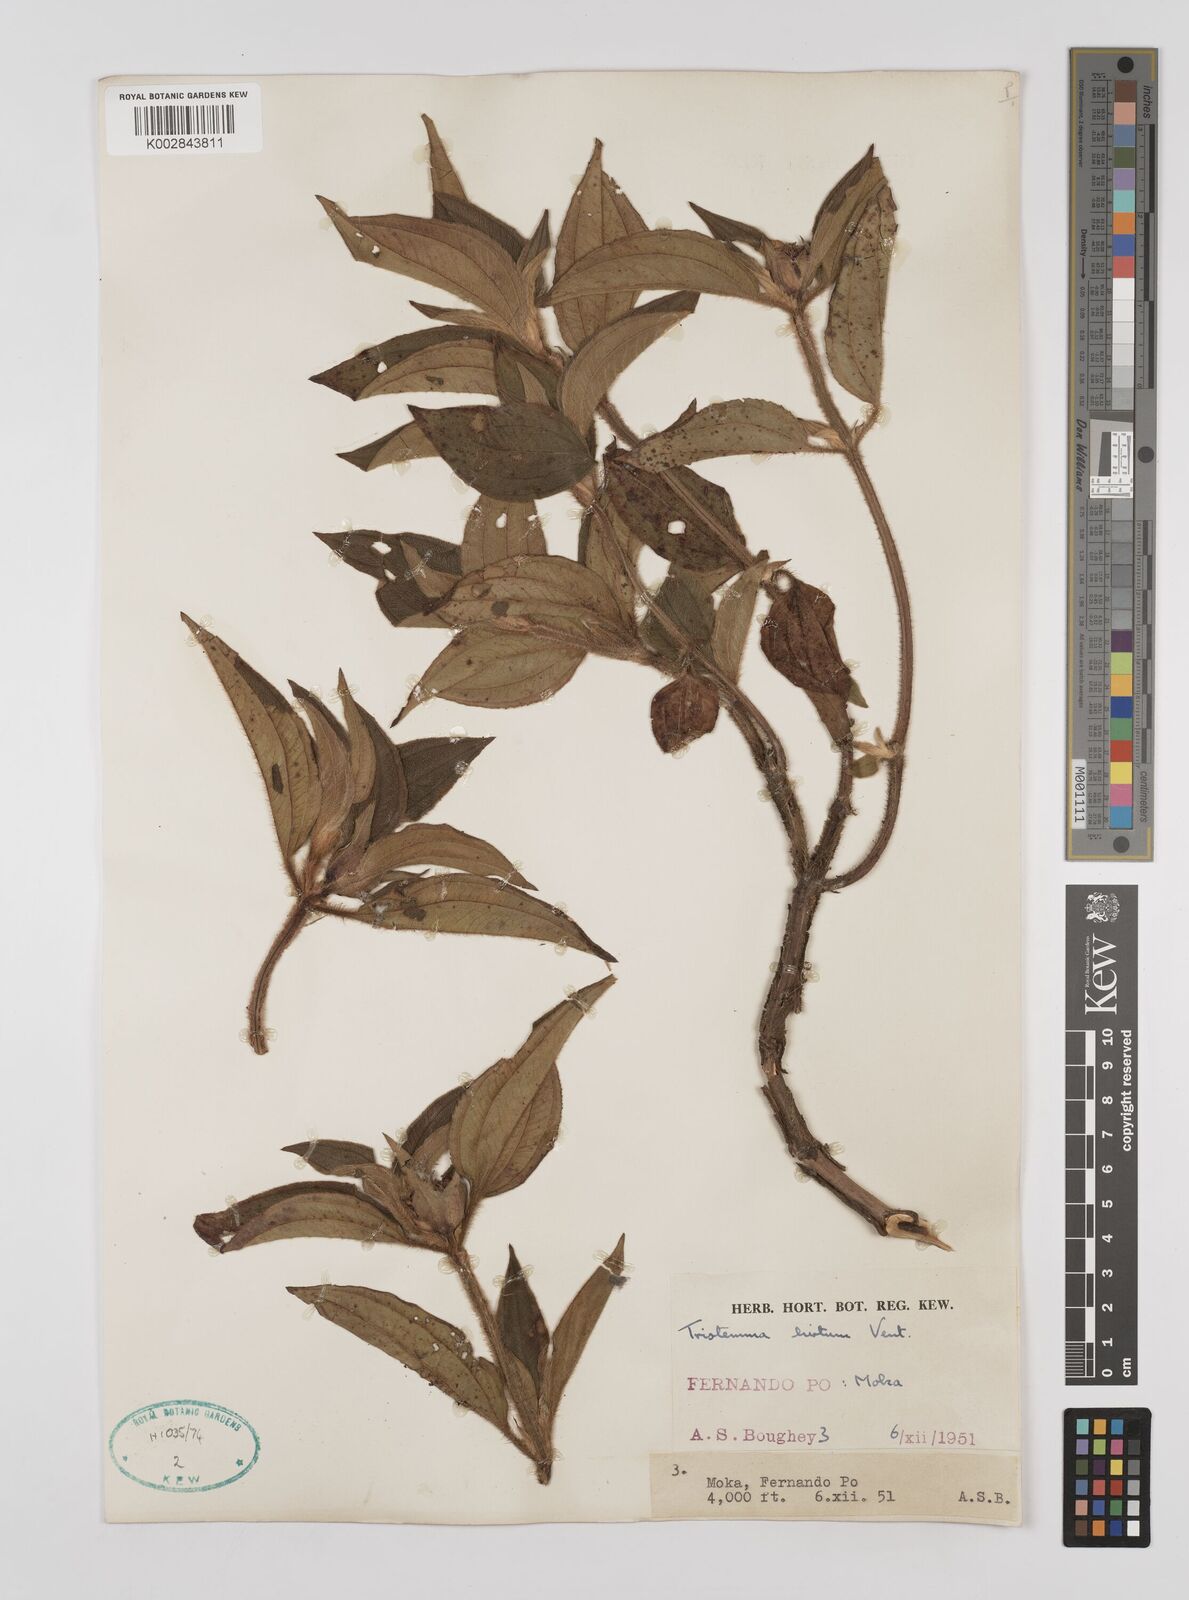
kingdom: Plantae
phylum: Tracheophyta
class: Magnoliopsida
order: Myrtales
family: Melastomataceae
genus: Tristemma
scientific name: Tristemma hirtum
